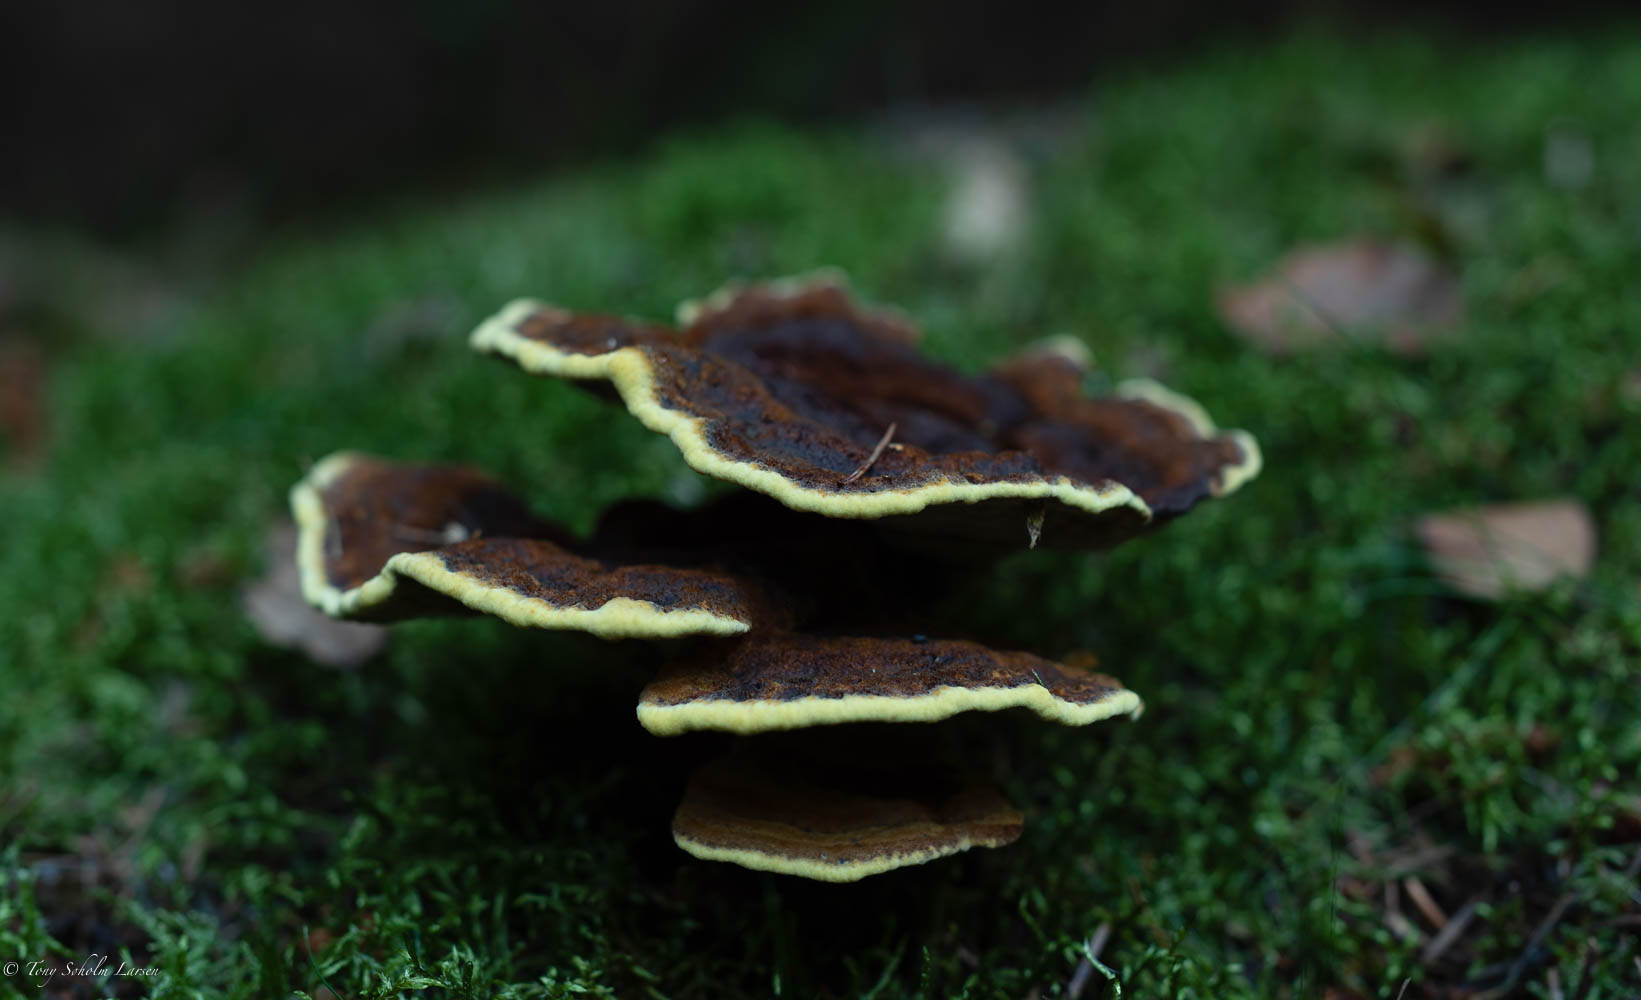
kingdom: Fungi
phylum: Basidiomycota
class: Agaricomycetes
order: Polyporales
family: Laetiporaceae
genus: Phaeolus
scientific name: Phaeolus schweinitzii
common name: brunporesvamp
